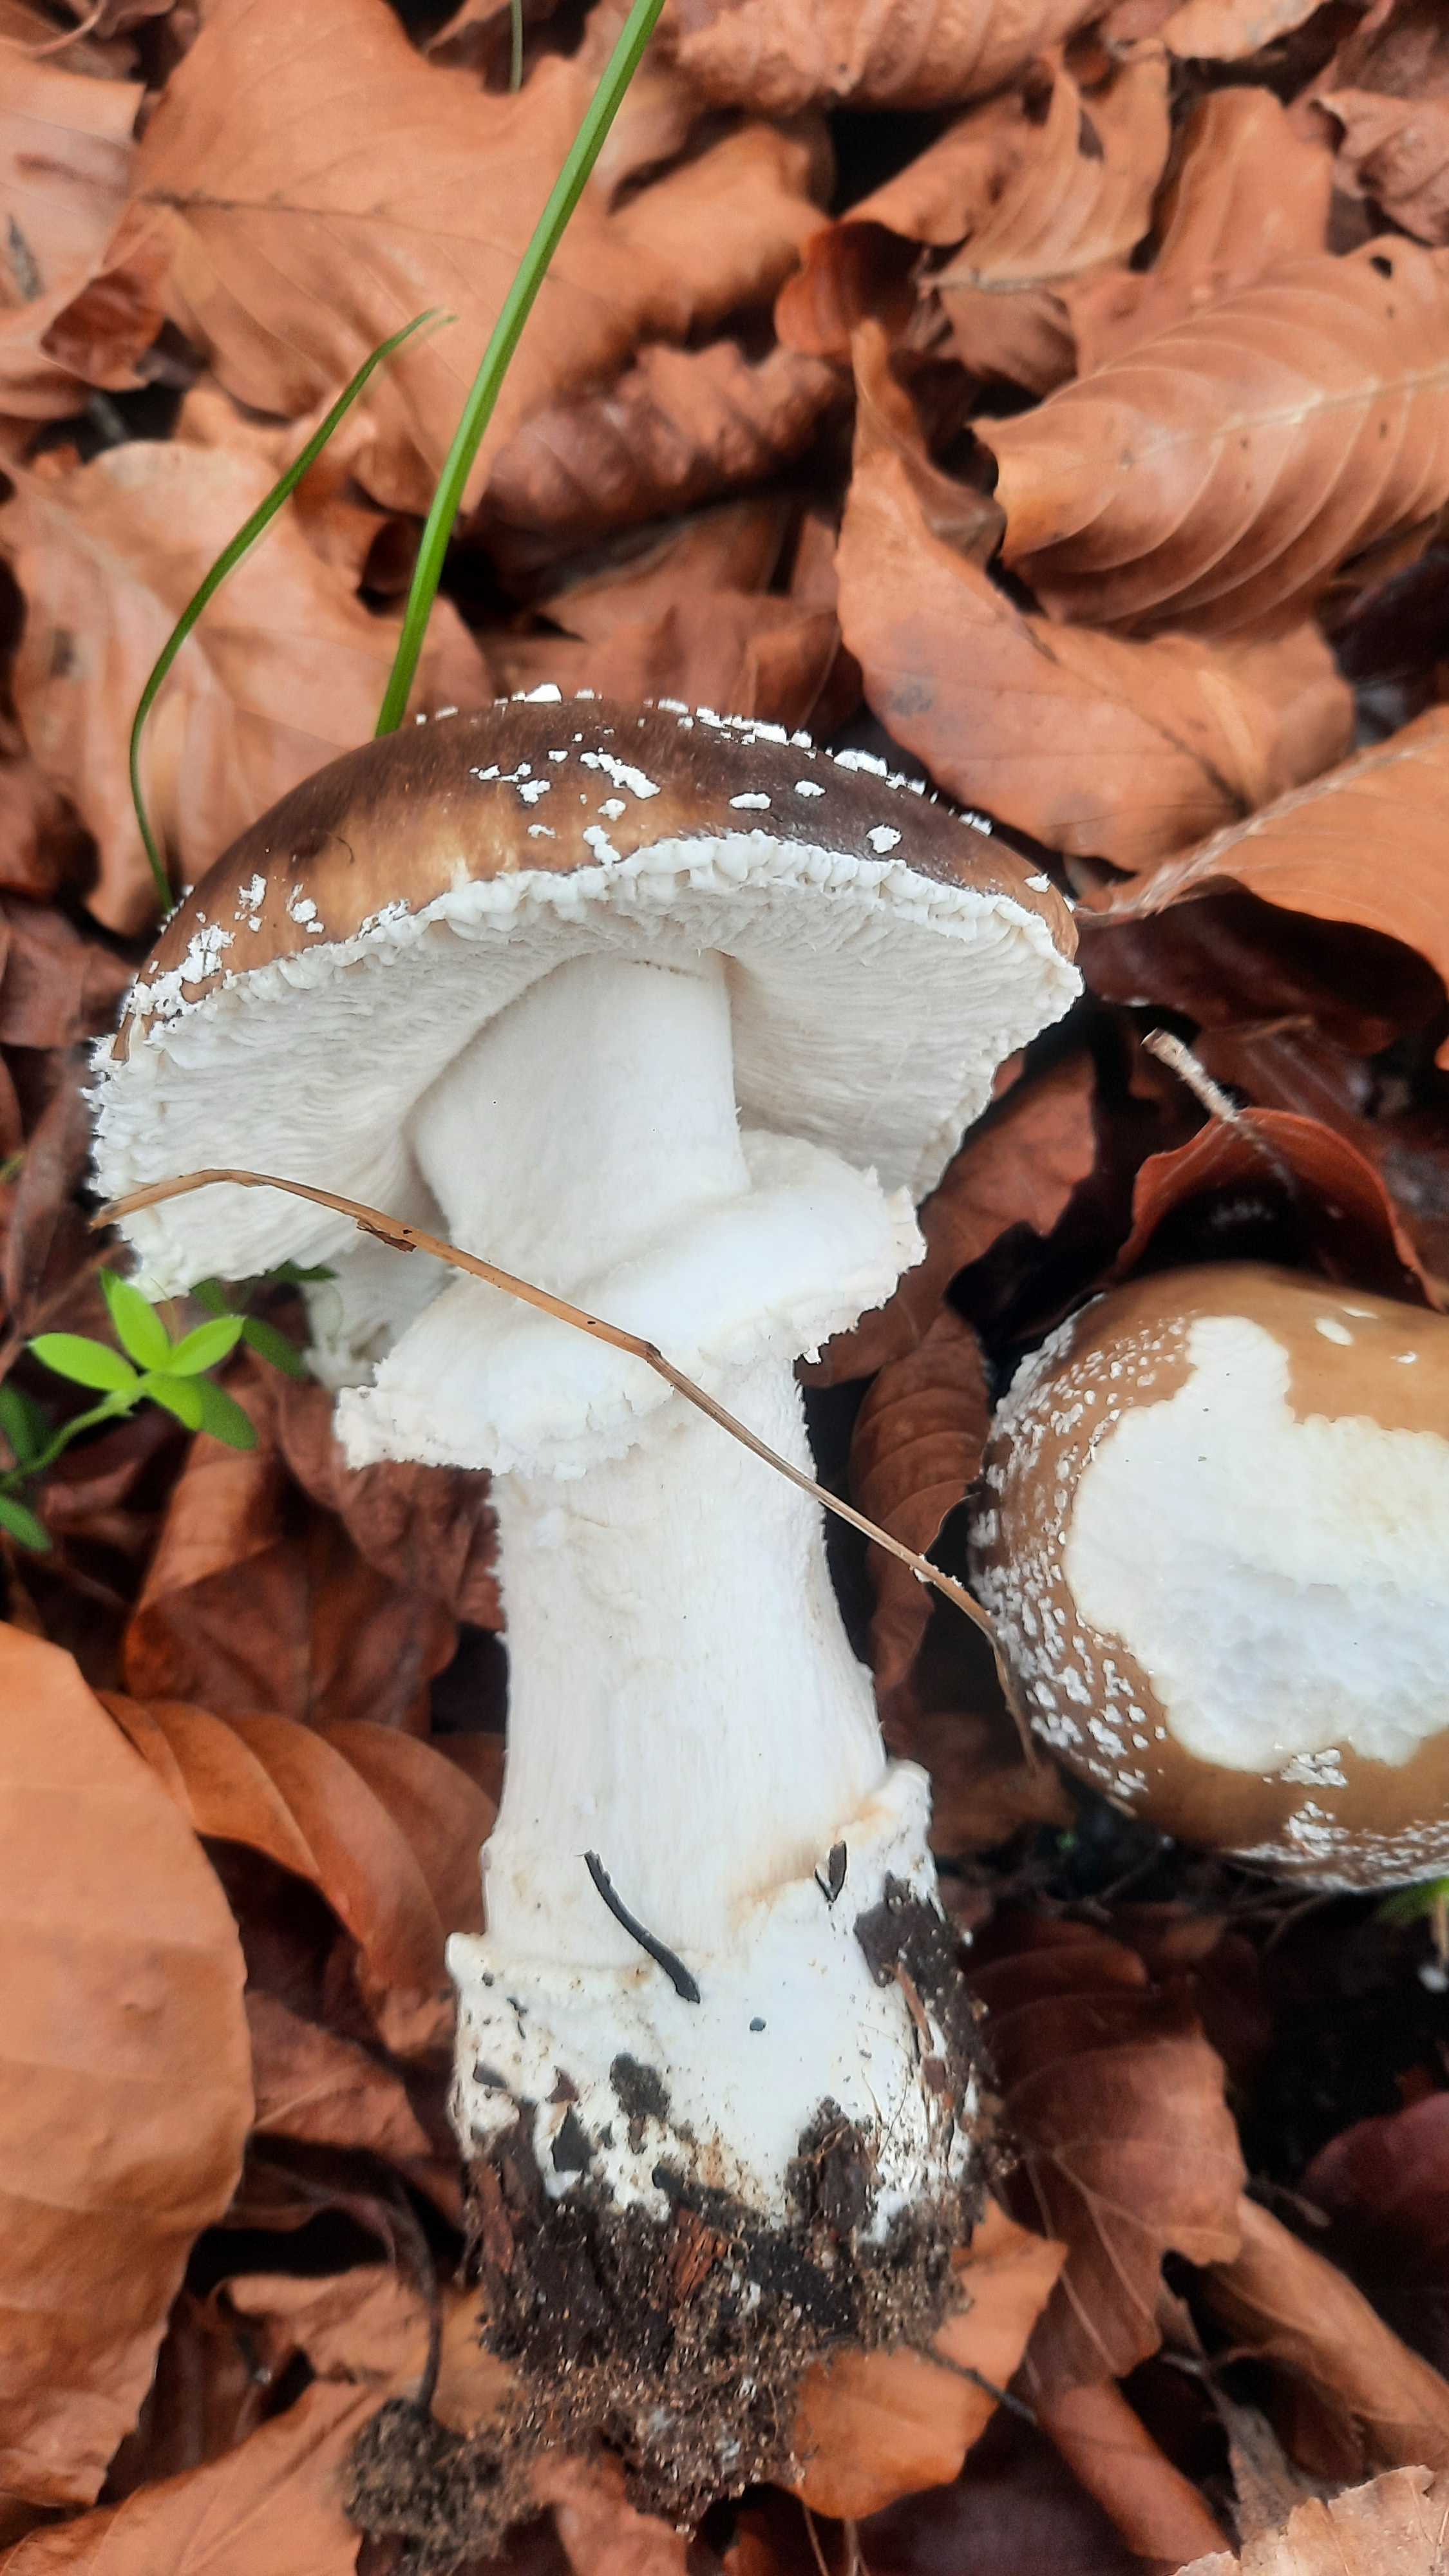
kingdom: Fungi
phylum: Basidiomycota
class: Agaricomycetes
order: Agaricales
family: Amanitaceae
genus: Amanita
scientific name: Amanita pantherina
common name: panter-fluesvamp
